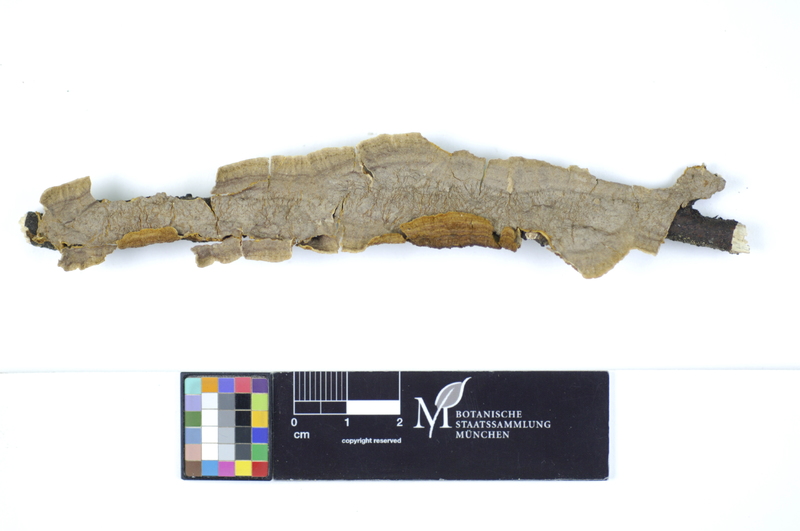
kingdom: Fungi
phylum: Basidiomycota
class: Agaricomycetes
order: Hymenochaetales
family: Hymenochaetaceae
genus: Hydnoporia
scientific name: Hydnoporia tabacina
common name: Willow glue
